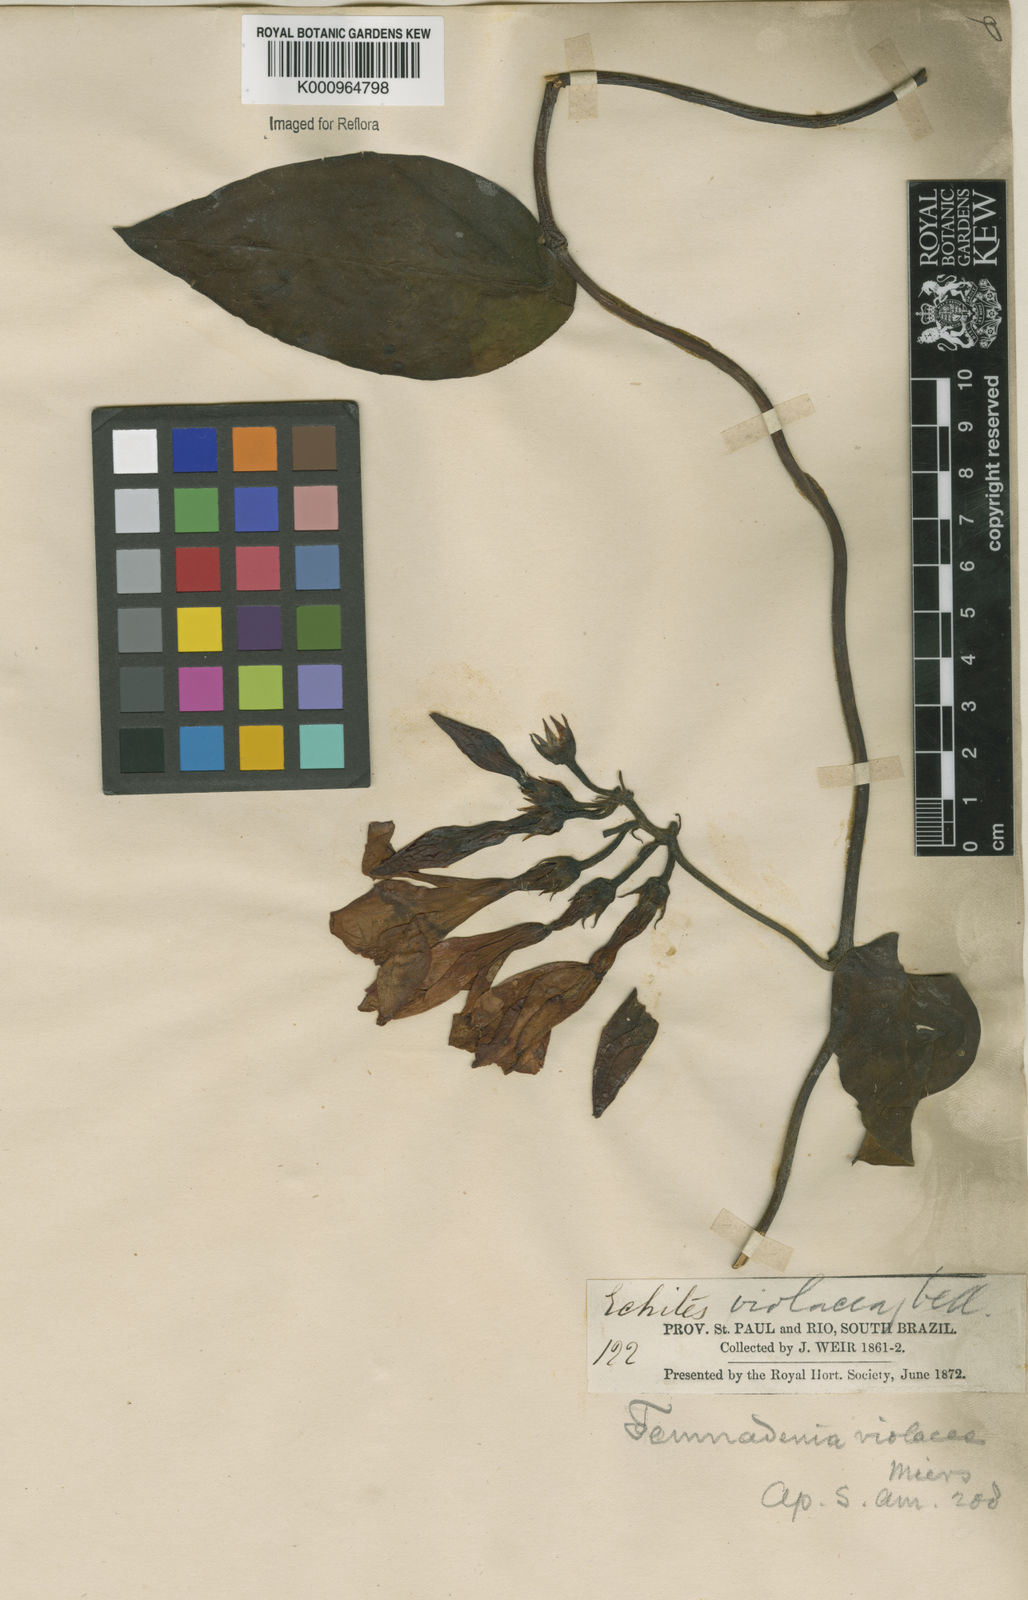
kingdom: Plantae
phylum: Tracheophyta
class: Magnoliopsida
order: Gentianales
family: Apocynaceae
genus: Temnadenia
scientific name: Temnadenia violacea
